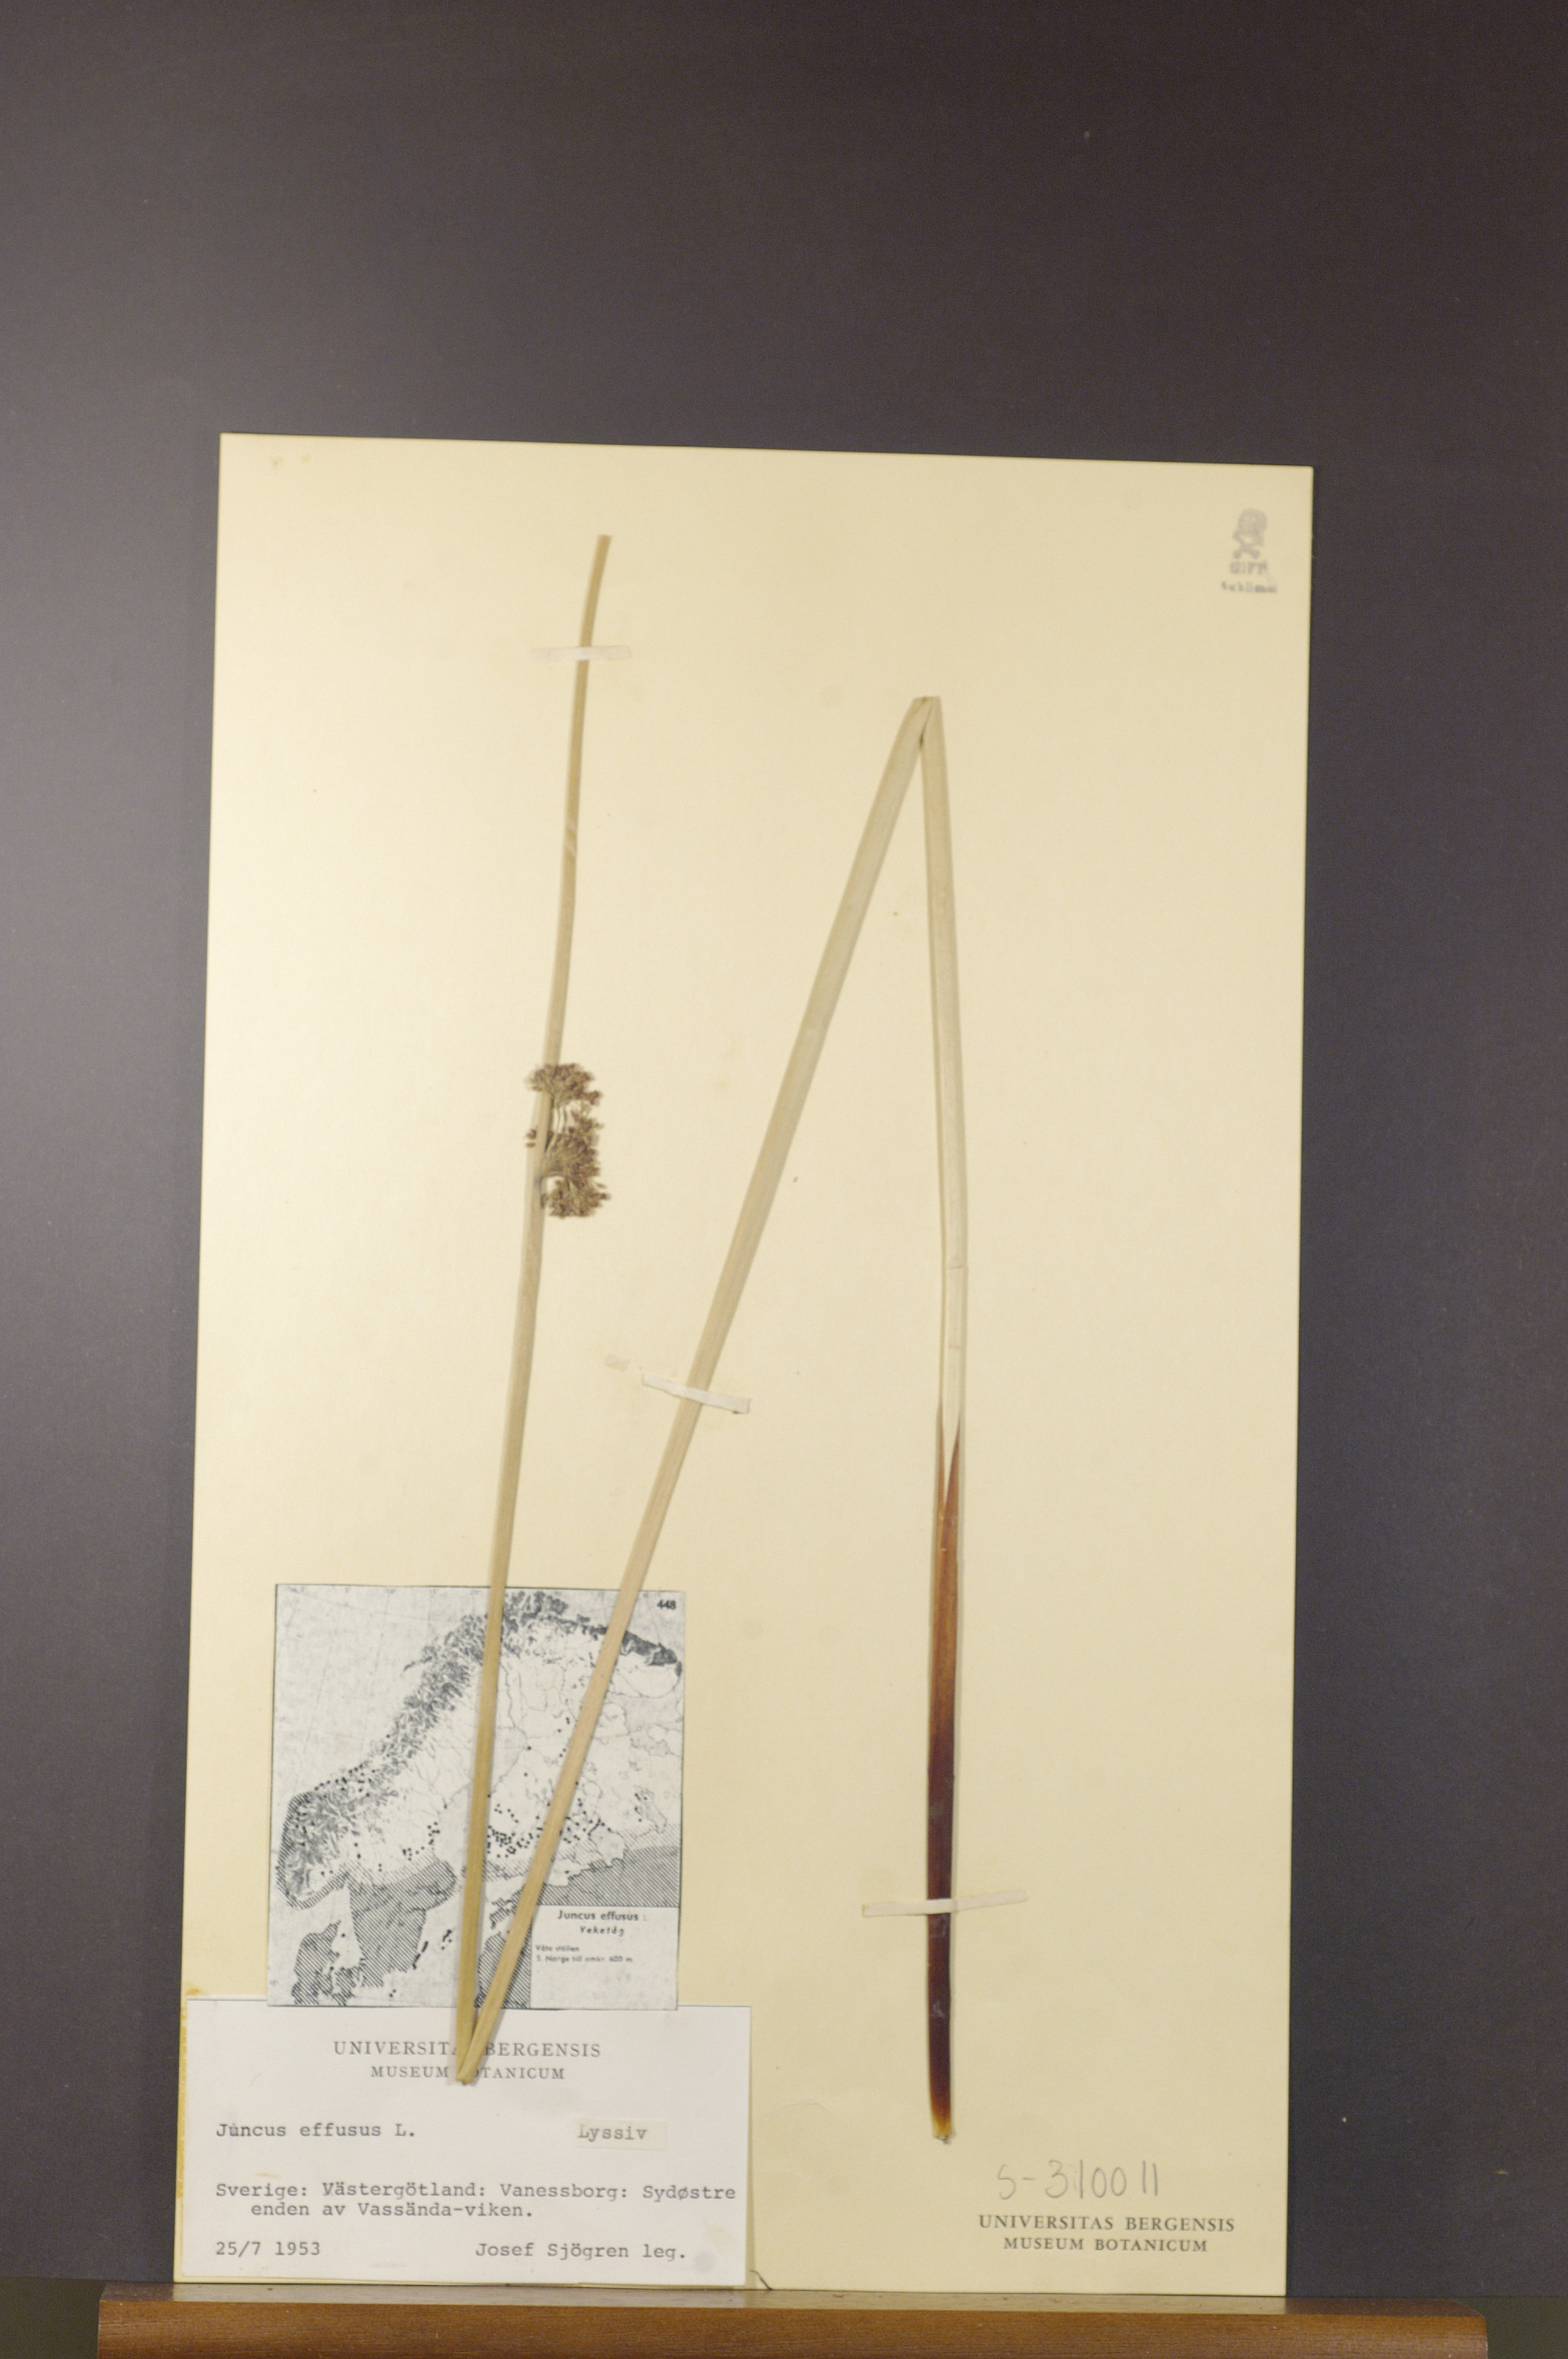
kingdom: Plantae
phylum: Tracheophyta
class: Liliopsida
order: Poales
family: Juncaceae
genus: Juncus
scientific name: Juncus effusus
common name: Soft rush
